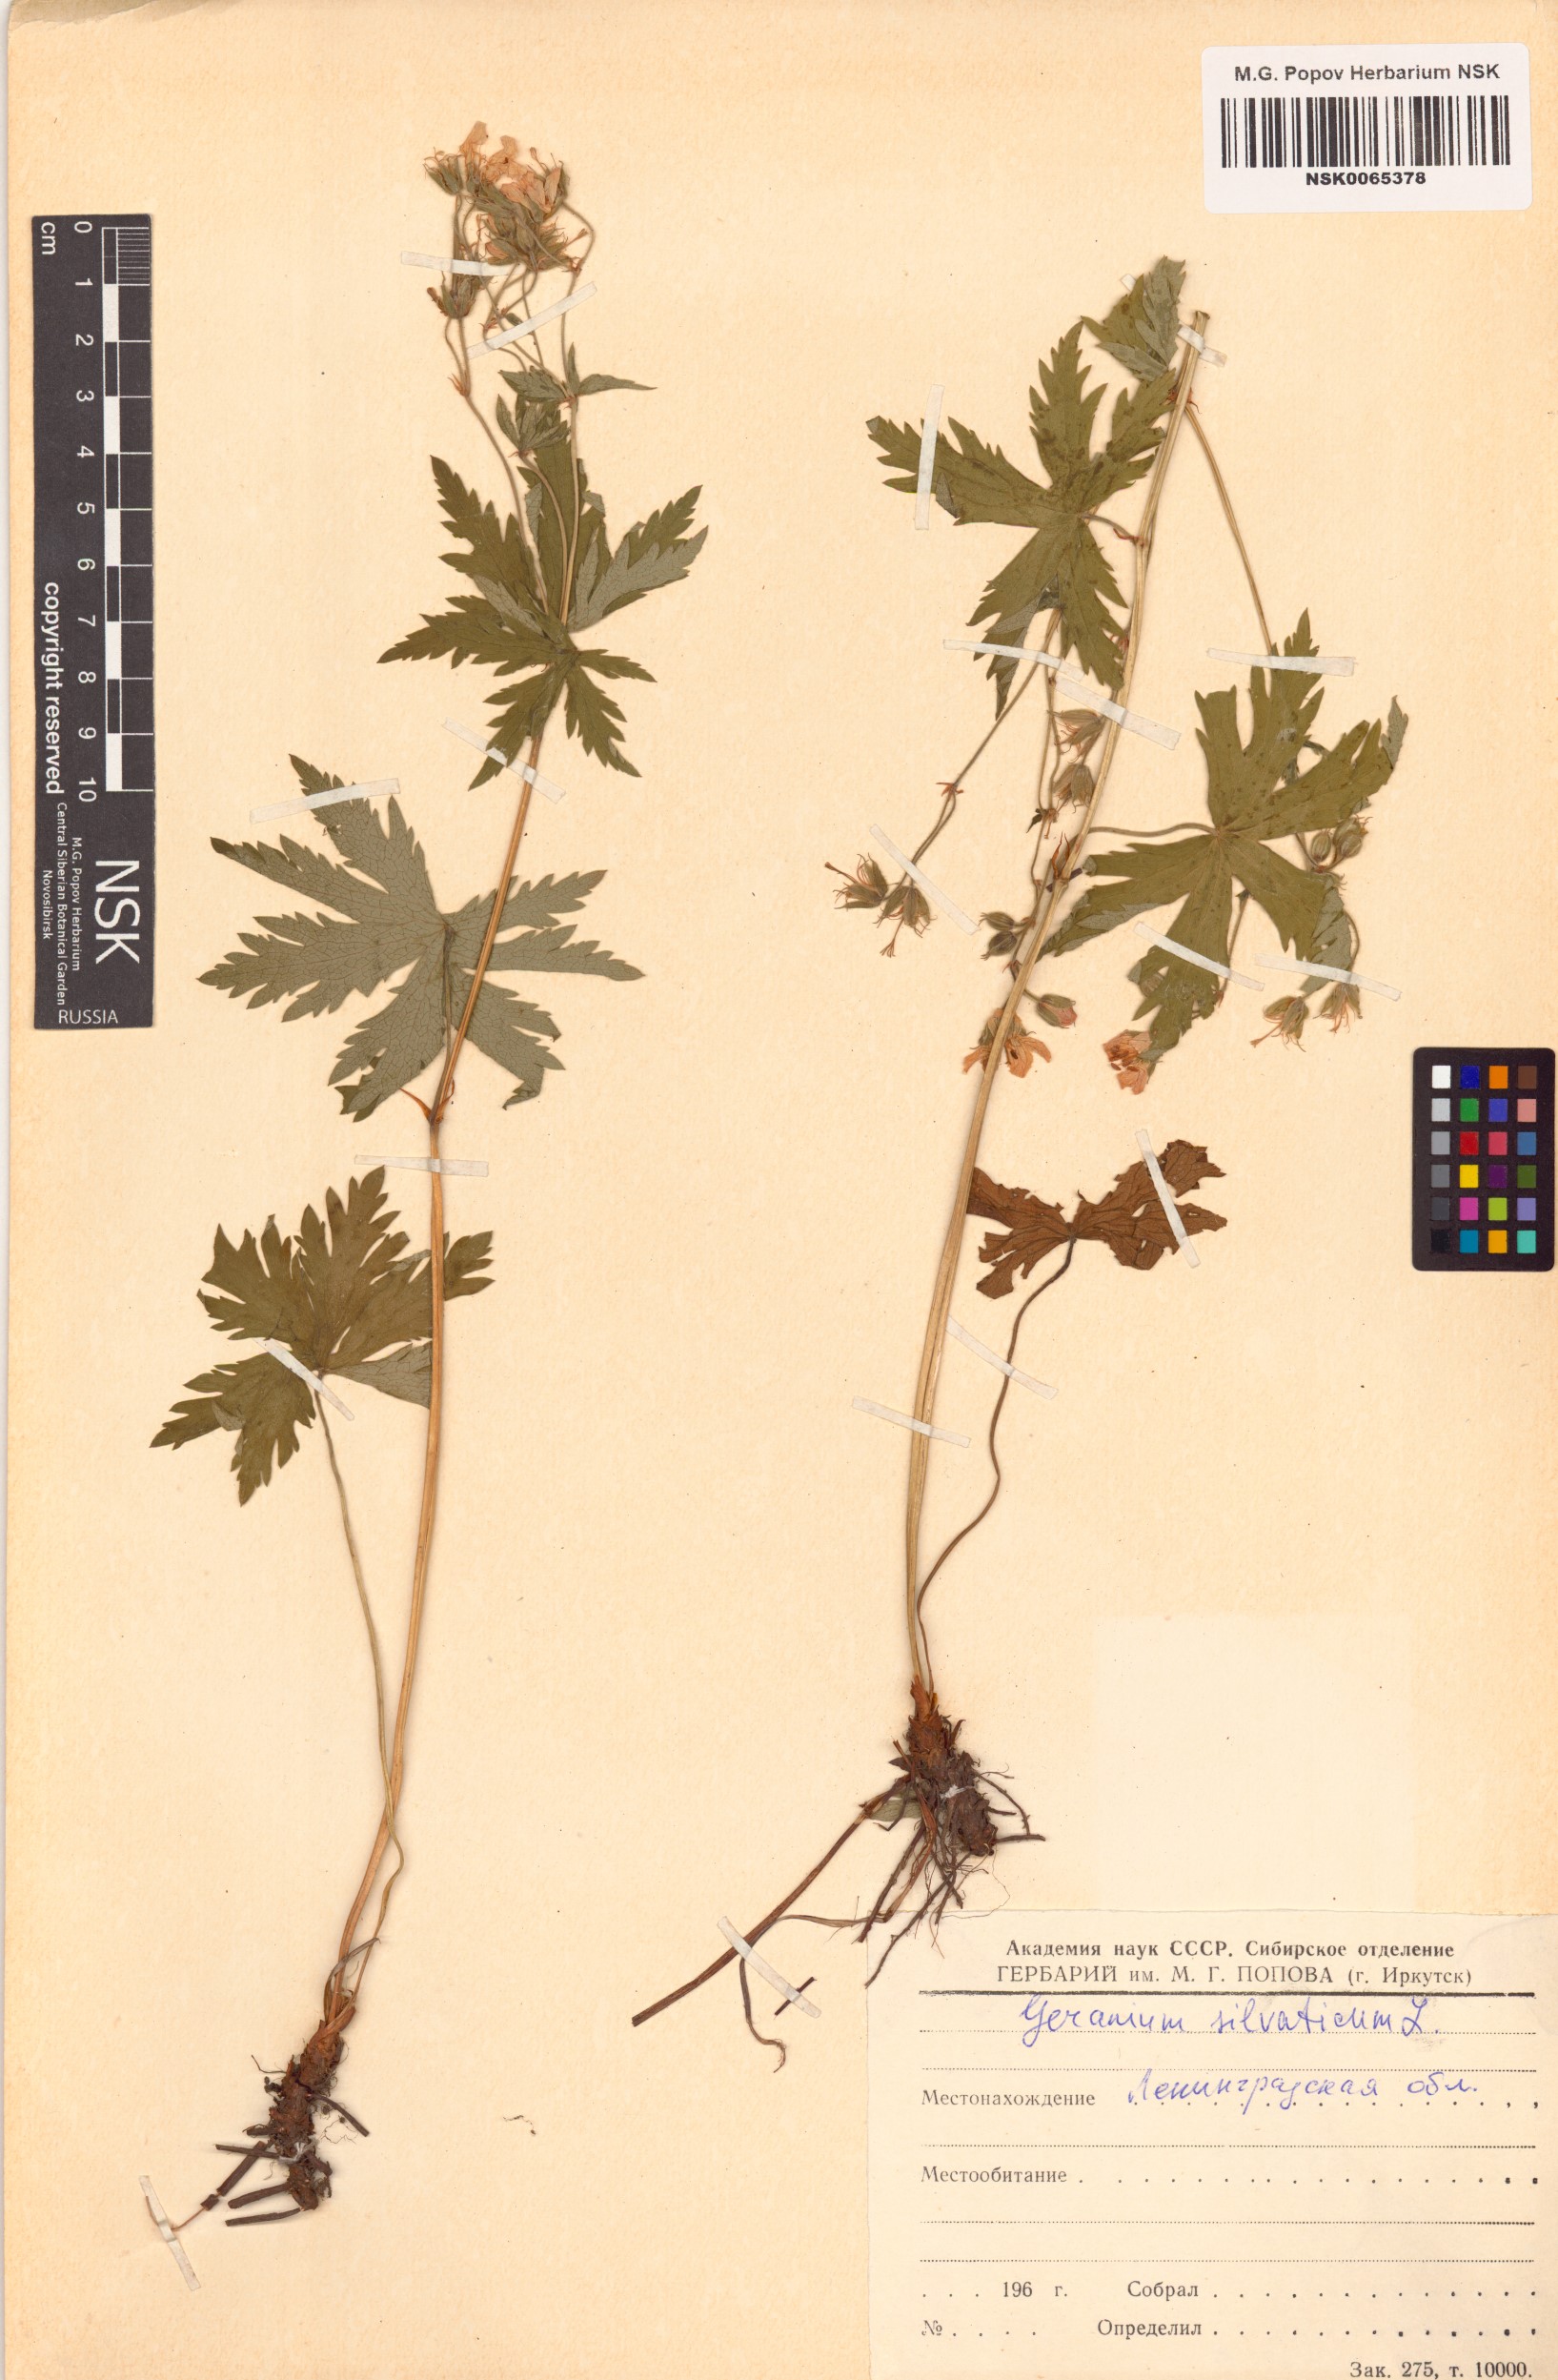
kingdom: Plantae
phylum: Tracheophyta
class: Magnoliopsida
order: Geraniales
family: Geraniaceae
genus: Geranium
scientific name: Geranium sylvaticum
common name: Wood crane's-bill
